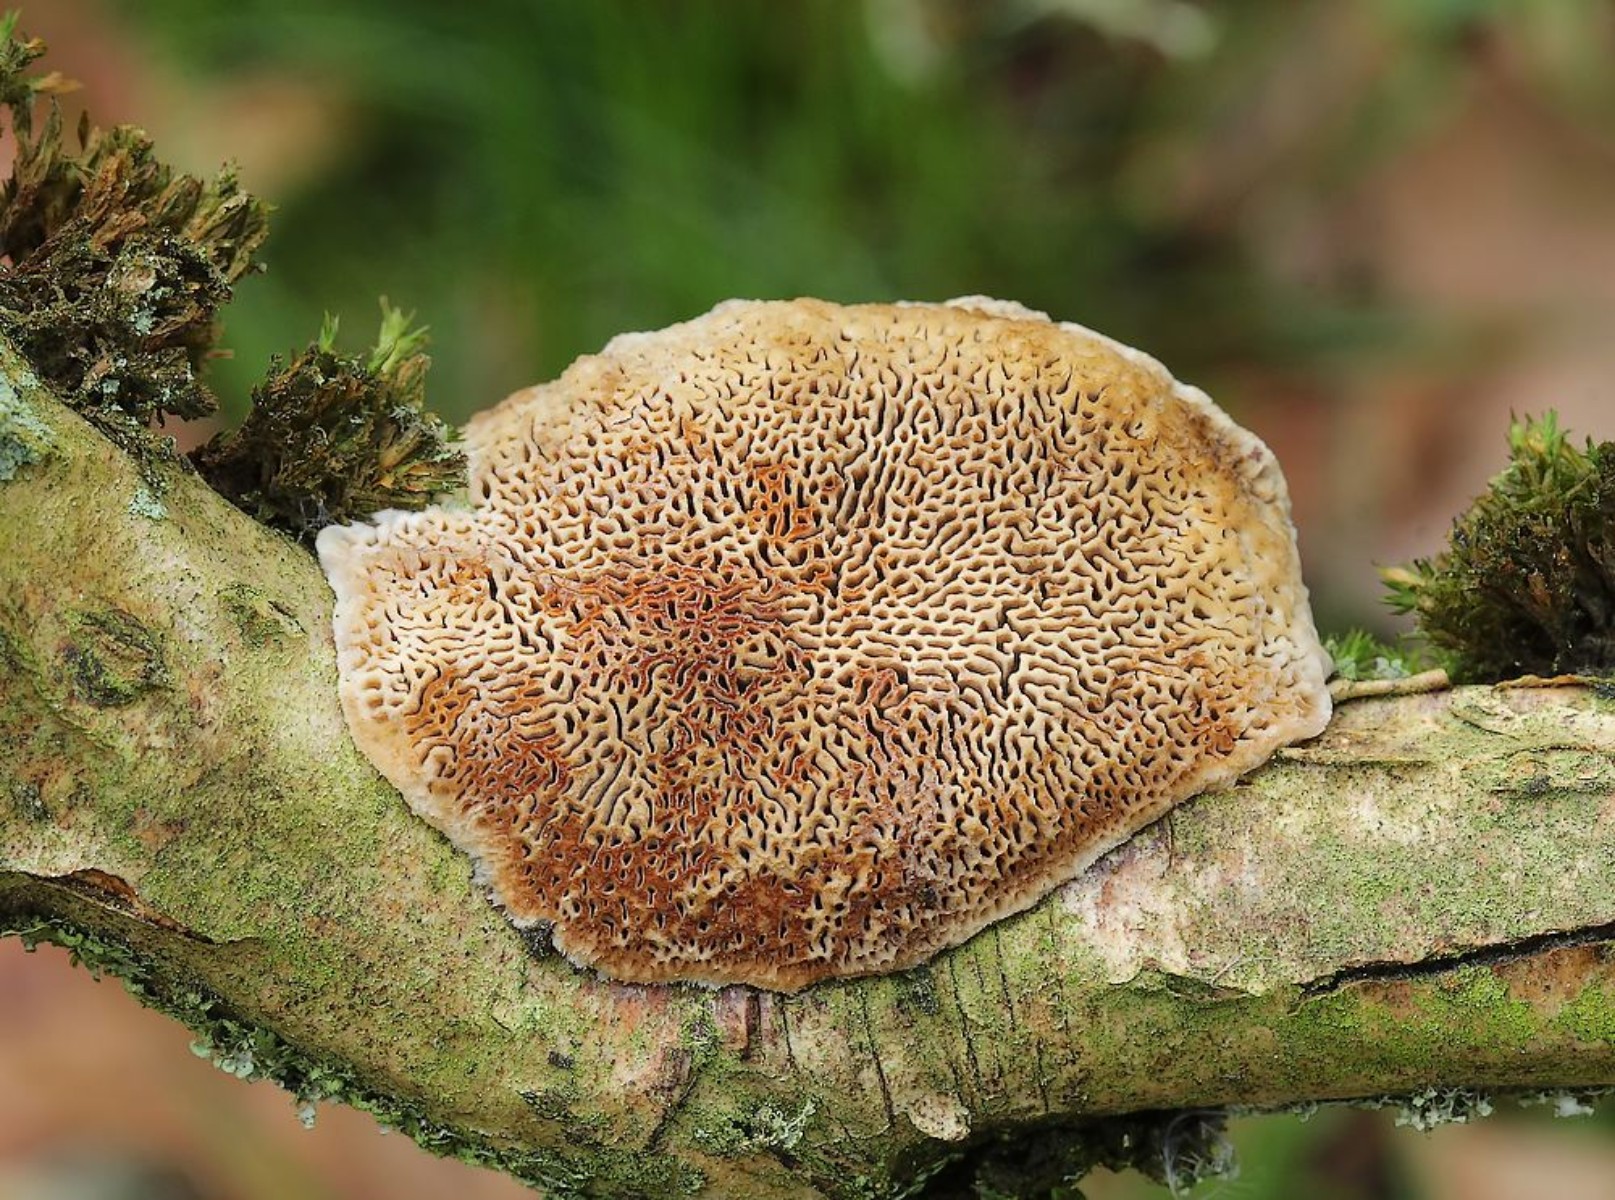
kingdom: Fungi
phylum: Basidiomycota
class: Agaricomycetes
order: Polyporales
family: Polyporaceae
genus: Daedaleopsis
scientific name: Daedaleopsis confragosa
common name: rødmende læderporesvamp
